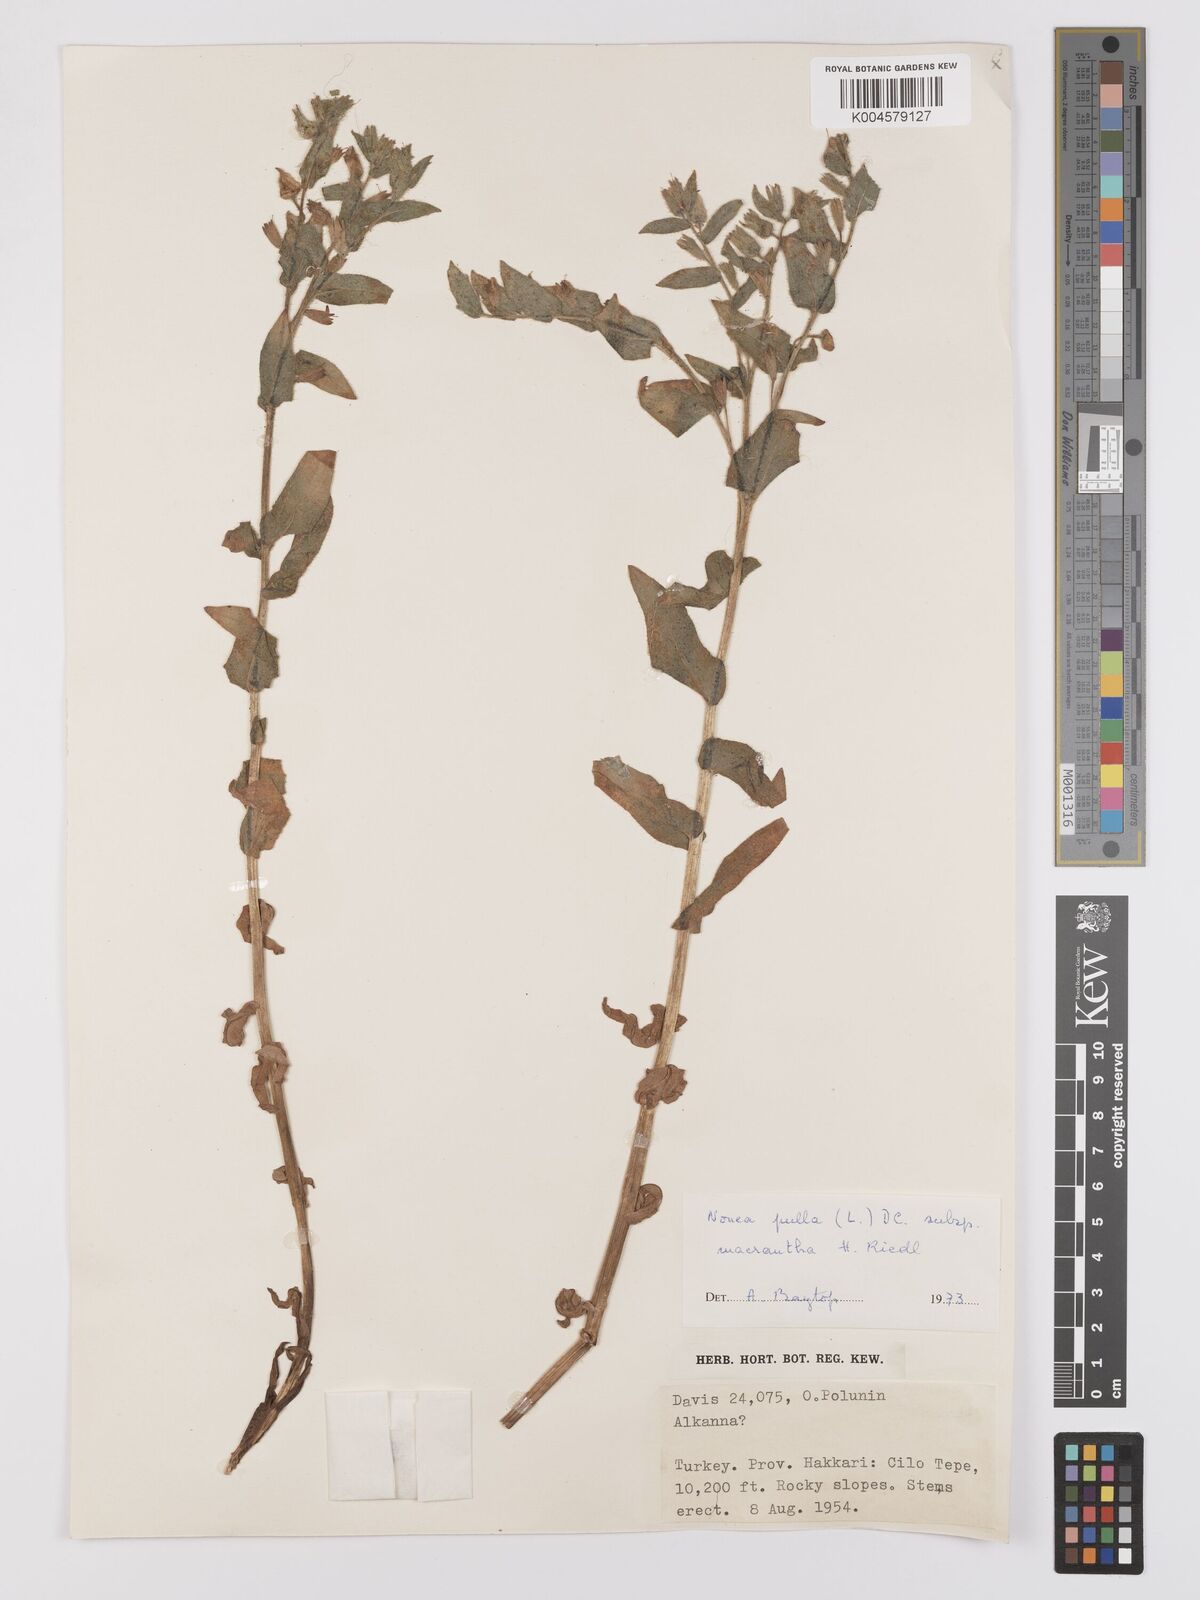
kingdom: Plantae
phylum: Tracheophyta
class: Magnoliopsida
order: Boraginales
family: Boraginaceae
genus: Nonea
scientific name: Nonea pulla
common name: Brown nonea
